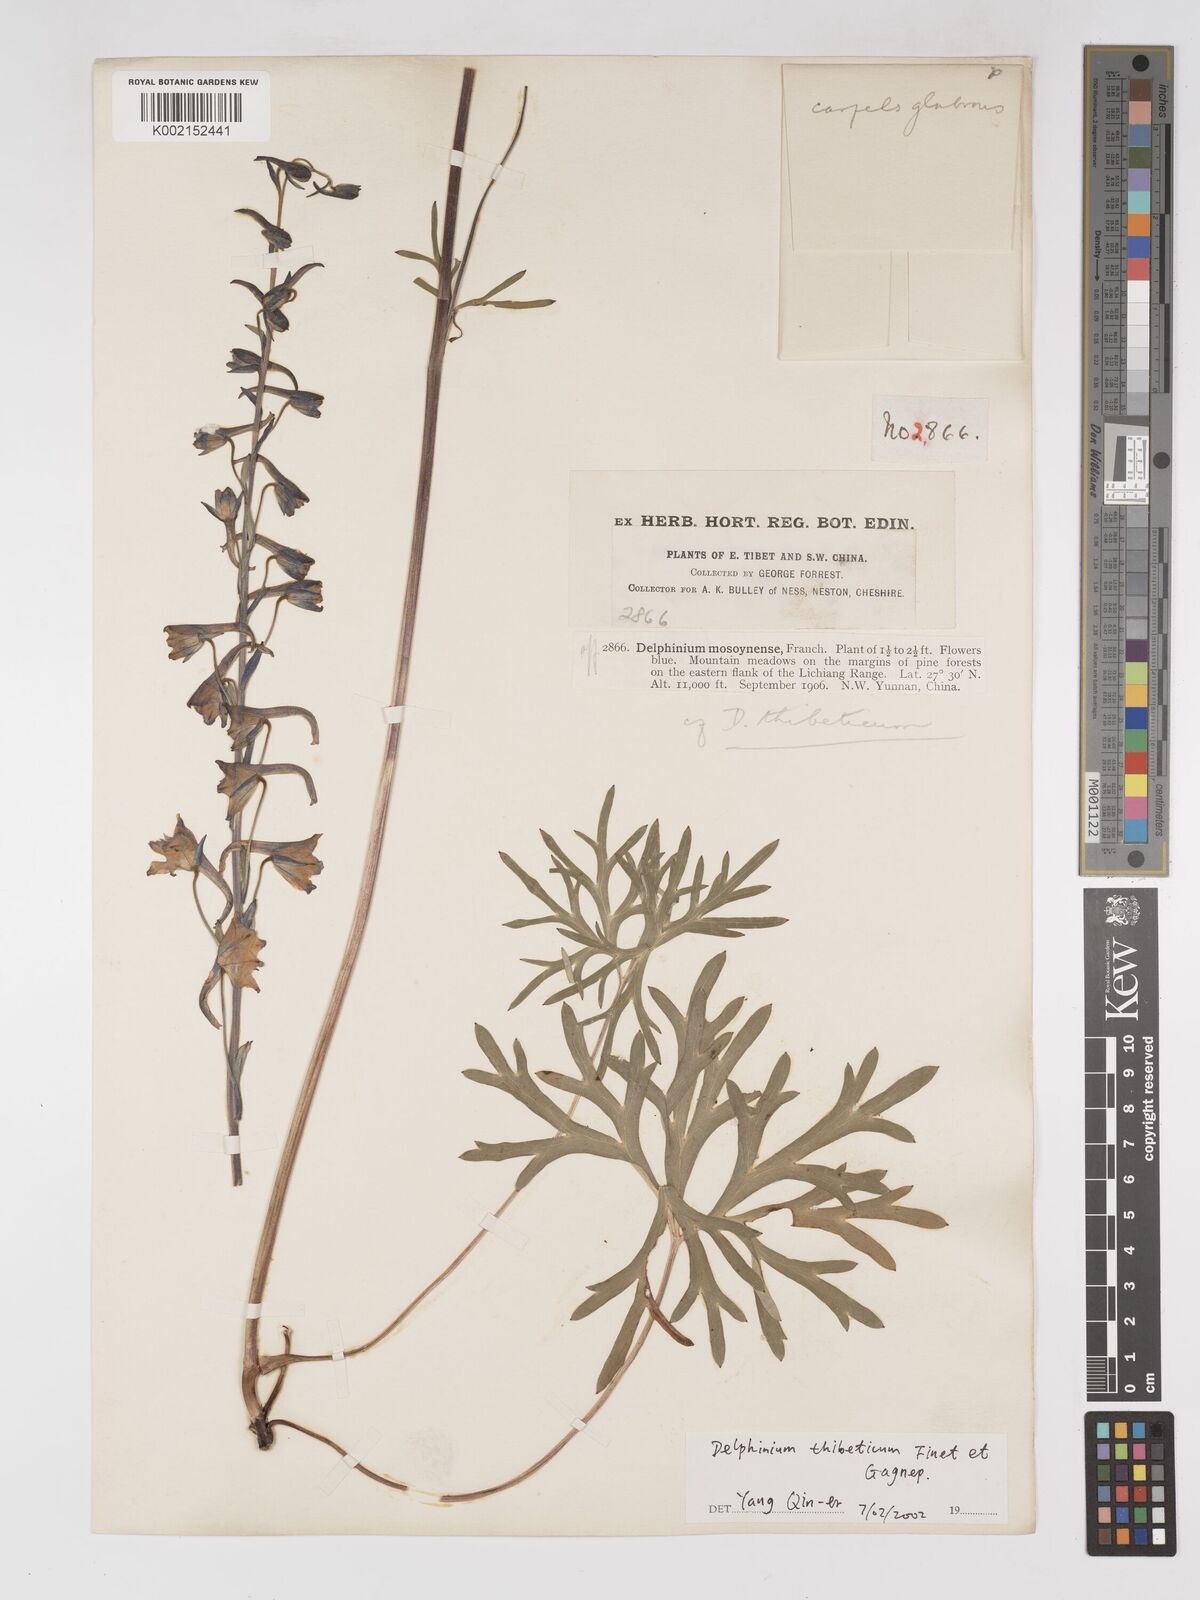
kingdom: Plantae
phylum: Tracheophyta
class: Magnoliopsida
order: Ranunculales
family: Ranunculaceae
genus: Delphinium
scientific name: Delphinium thibeticum
